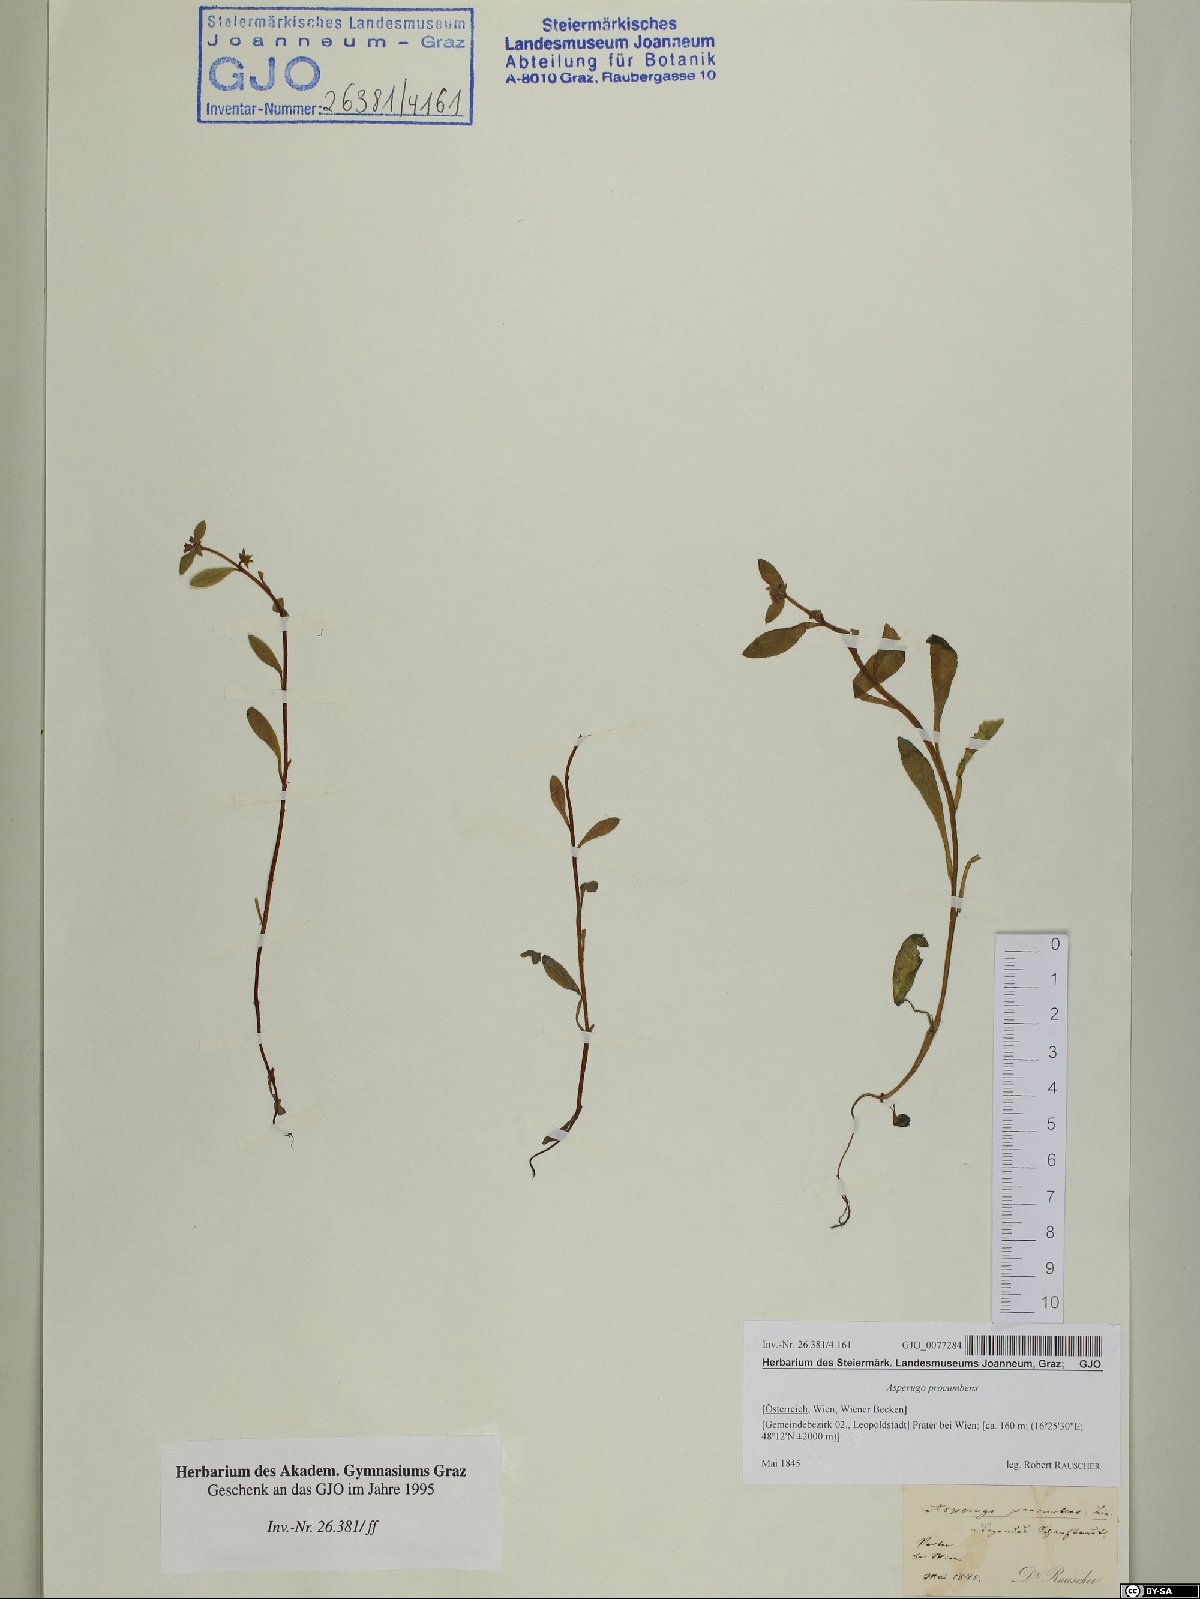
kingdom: Plantae
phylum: Tracheophyta
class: Magnoliopsida
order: Boraginales
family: Boraginaceae
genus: Asperugo
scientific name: Asperugo procumbens
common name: Madwort
